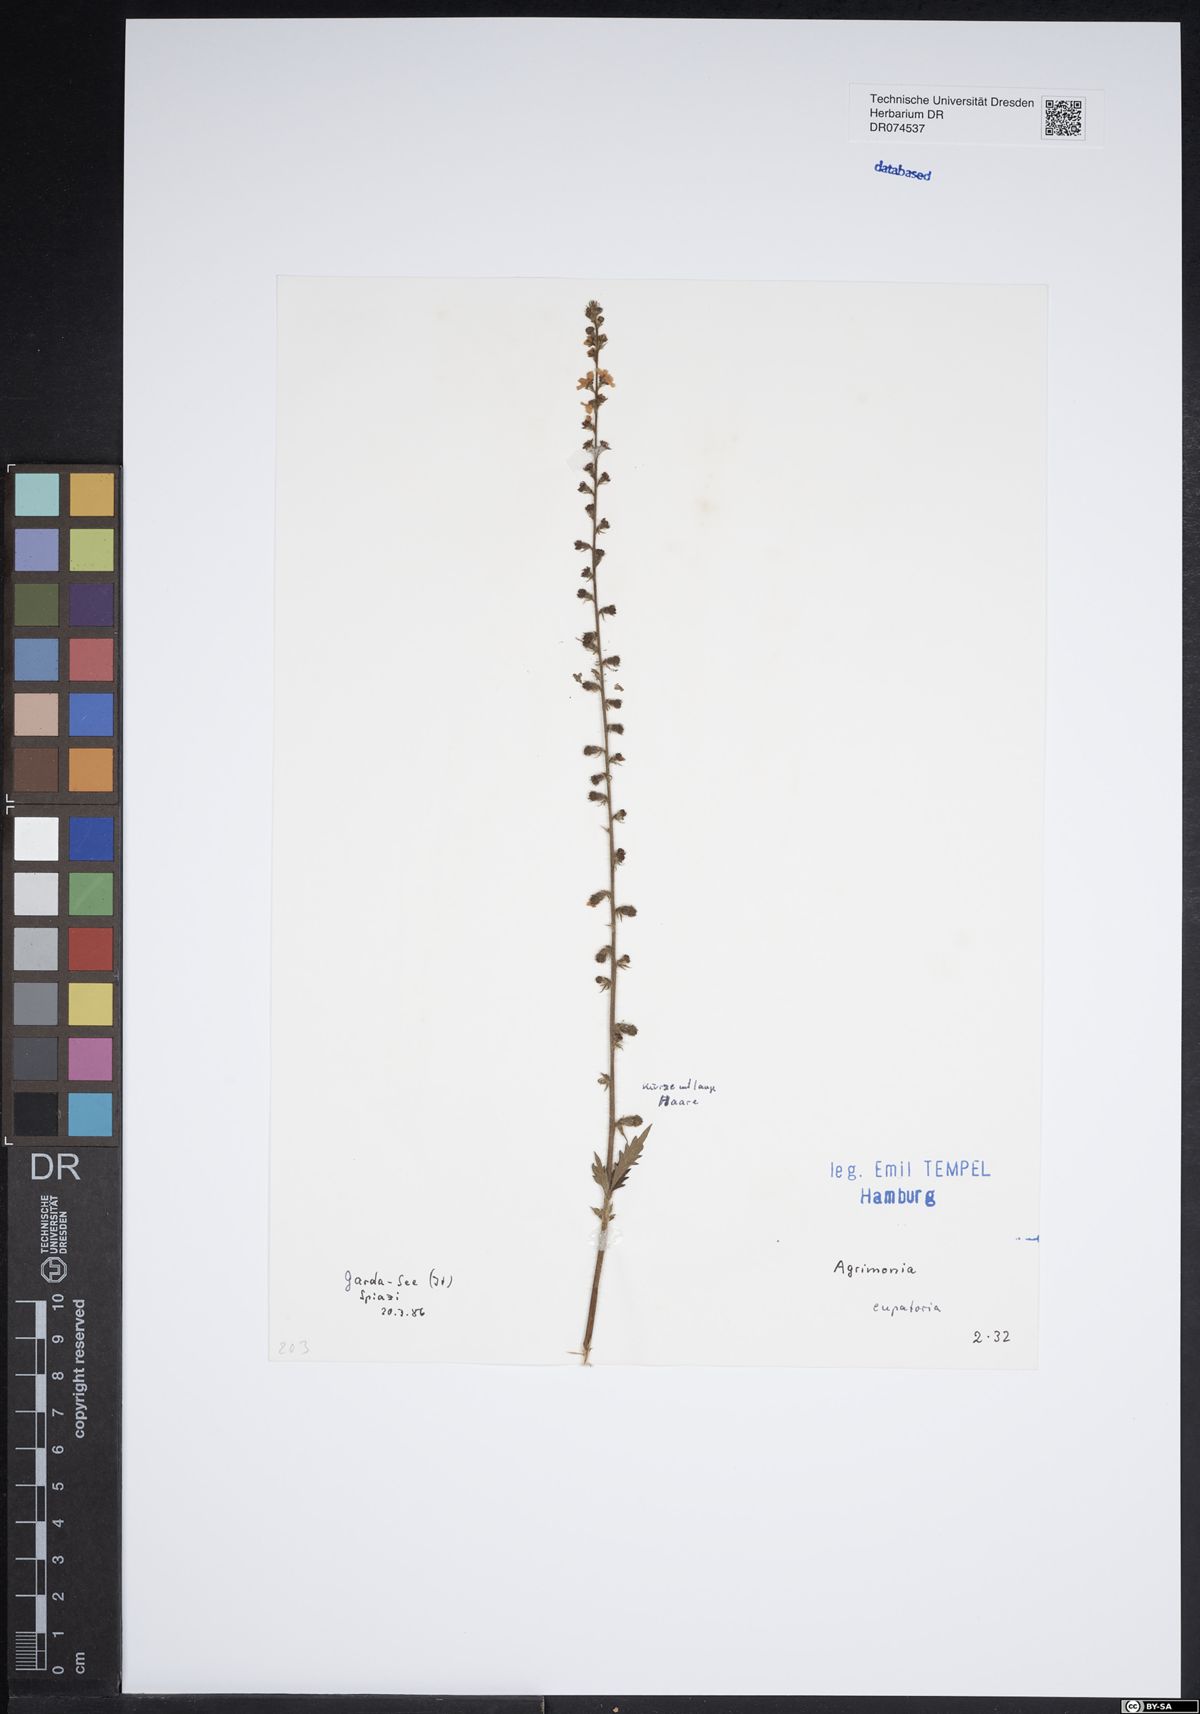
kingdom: Plantae
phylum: Tracheophyta
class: Magnoliopsida
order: Rosales
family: Rosaceae
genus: Agrimonia
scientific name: Agrimonia eupatoria
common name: Agrimony
